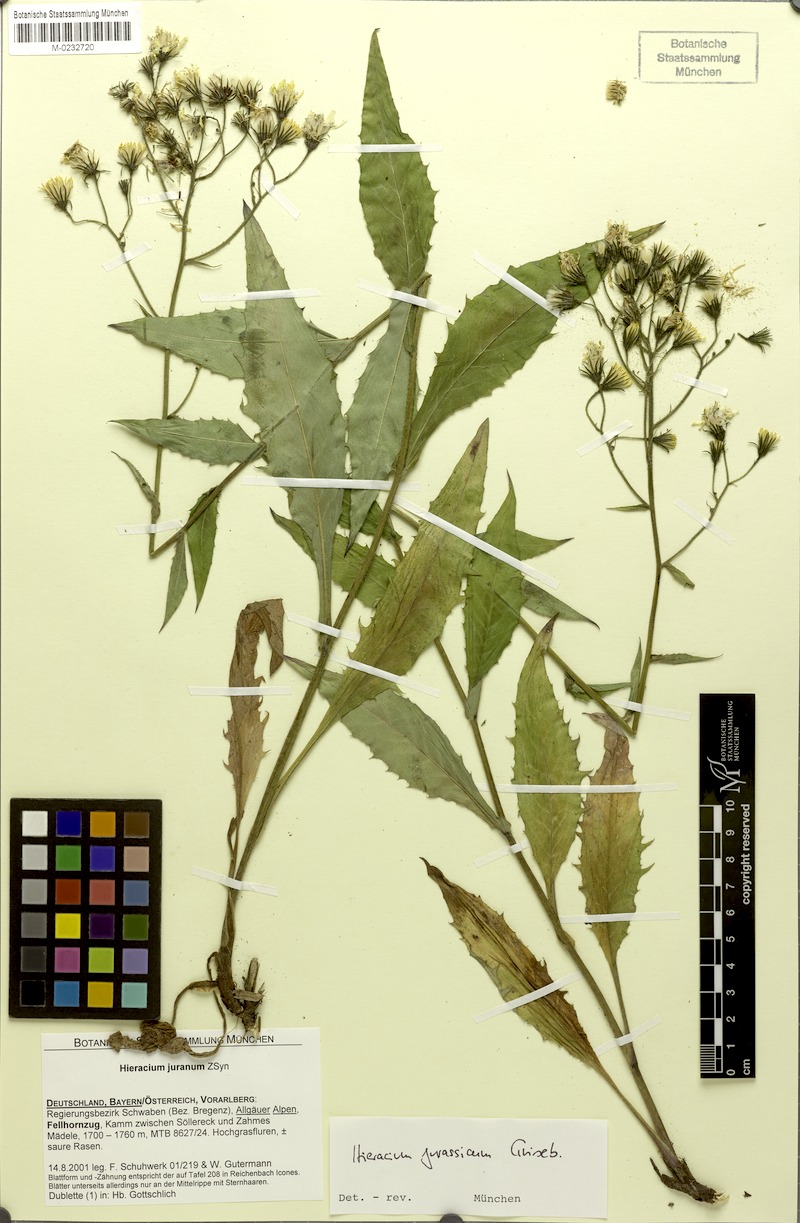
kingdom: Plantae
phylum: Tracheophyta
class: Magnoliopsida
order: Asterales
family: Asteraceae
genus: Hieracium
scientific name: Hieracium jurassicum
